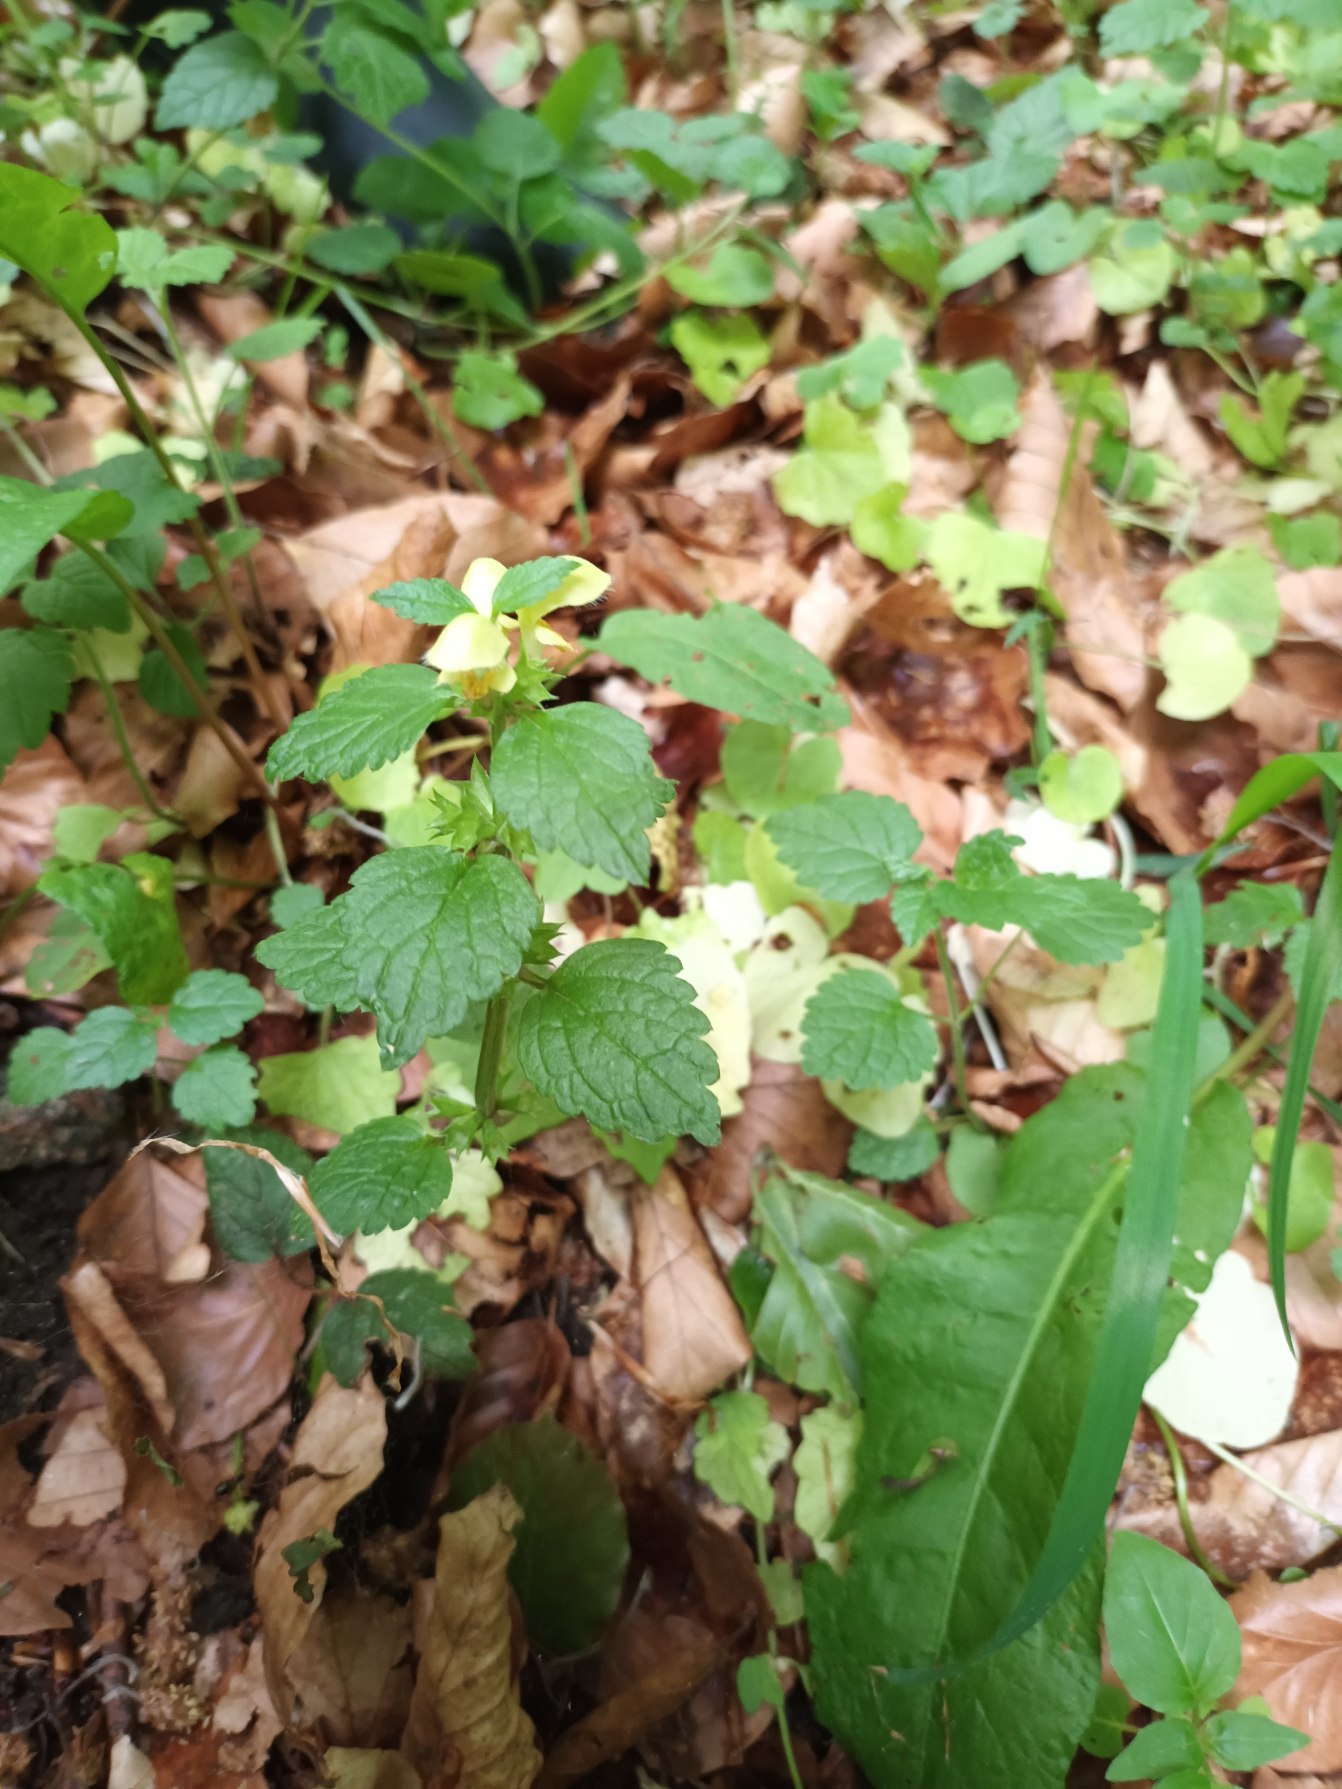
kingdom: Plantae
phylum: Tracheophyta
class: Magnoliopsida
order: Lamiales
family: Lamiaceae
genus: Lamium
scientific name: Lamium galeobdolon
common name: Almindelig guldnælde
